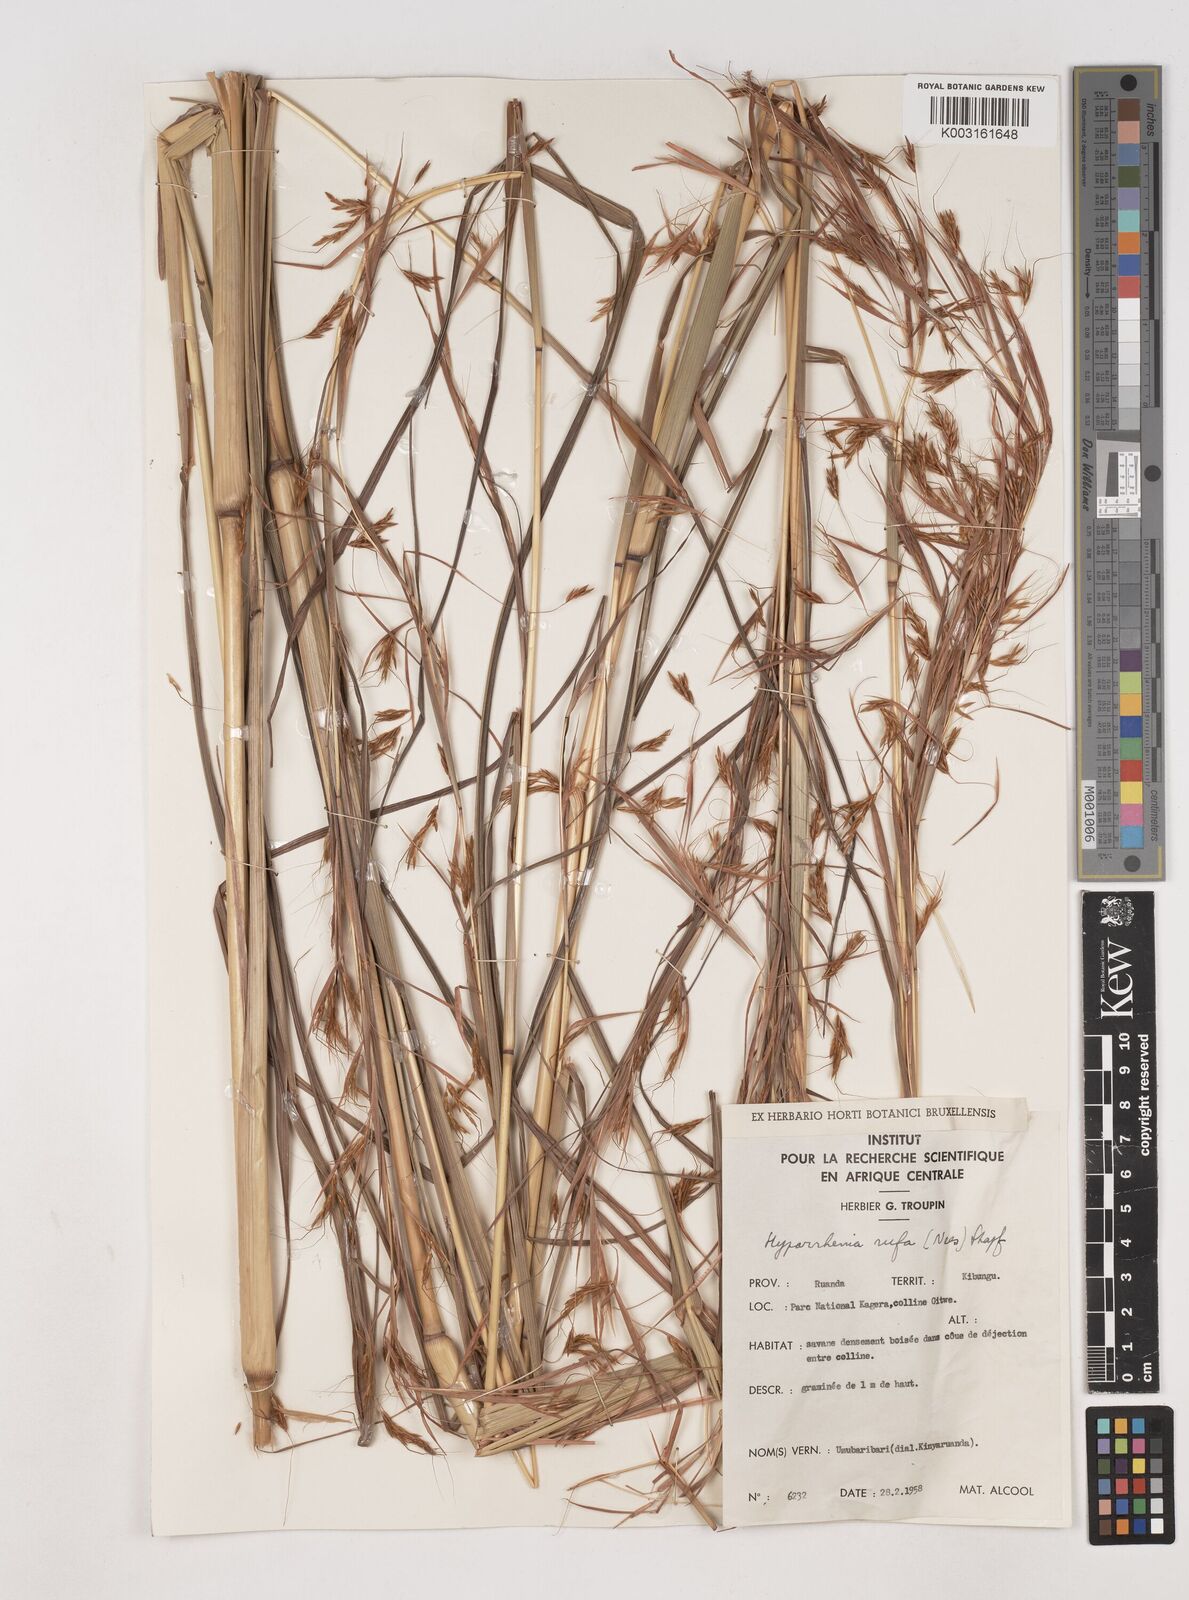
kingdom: Plantae
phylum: Tracheophyta
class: Liliopsida
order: Poales
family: Poaceae
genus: Hyparrhenia
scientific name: Hyparrhenia rufa
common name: Jaraguagrass
